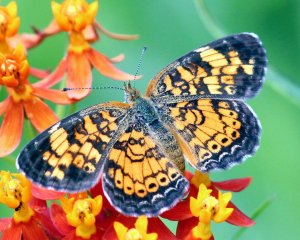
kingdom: Animalia
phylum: Arthropoda
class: Insecta
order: Lepidoptera
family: Nymphalidae
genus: Phyciodes
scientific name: Phyciodes tharos
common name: Pearl Crescent
